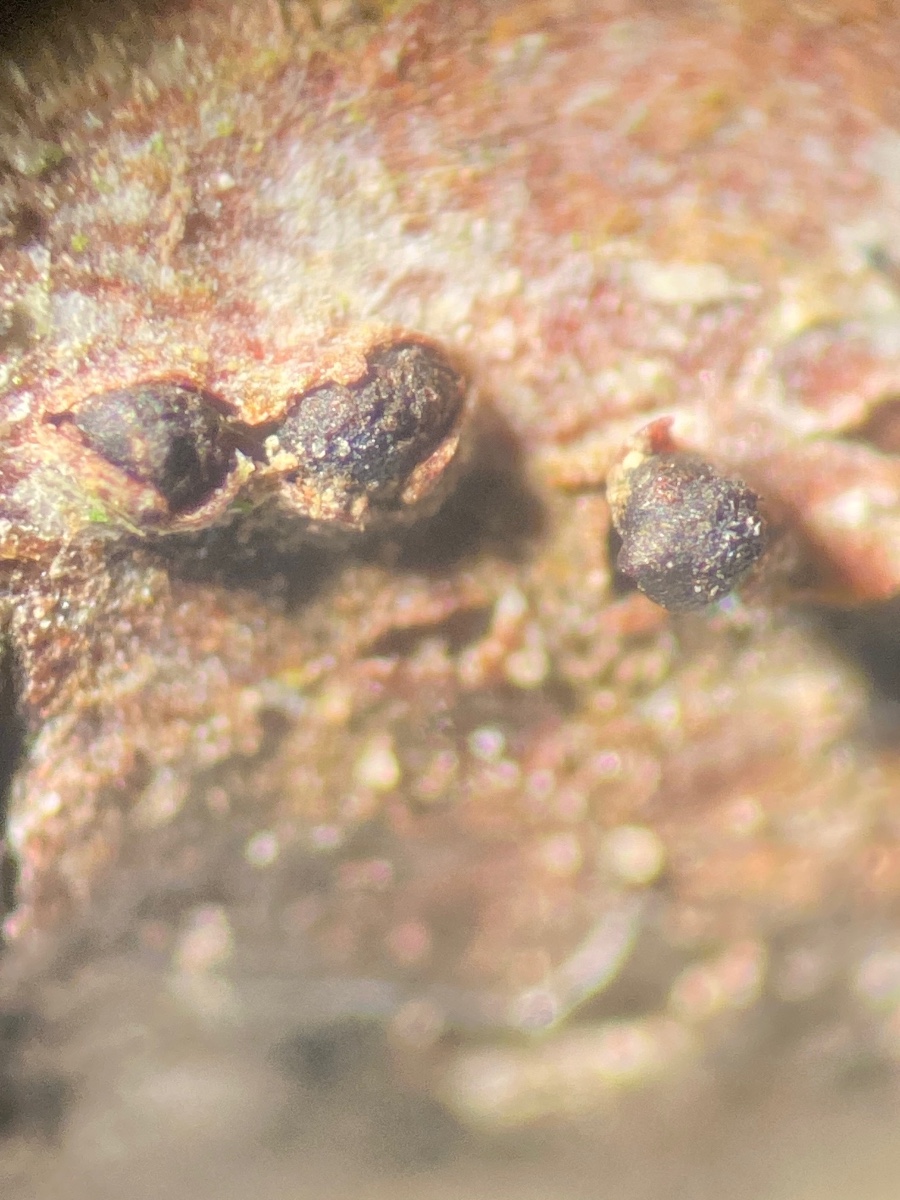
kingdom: Fungi
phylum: Ascomycota
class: Leotiomycetes
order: Helotiales
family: Godroniaceae
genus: Godronia
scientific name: Godronia callunigera
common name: hedelyng-urneskive
